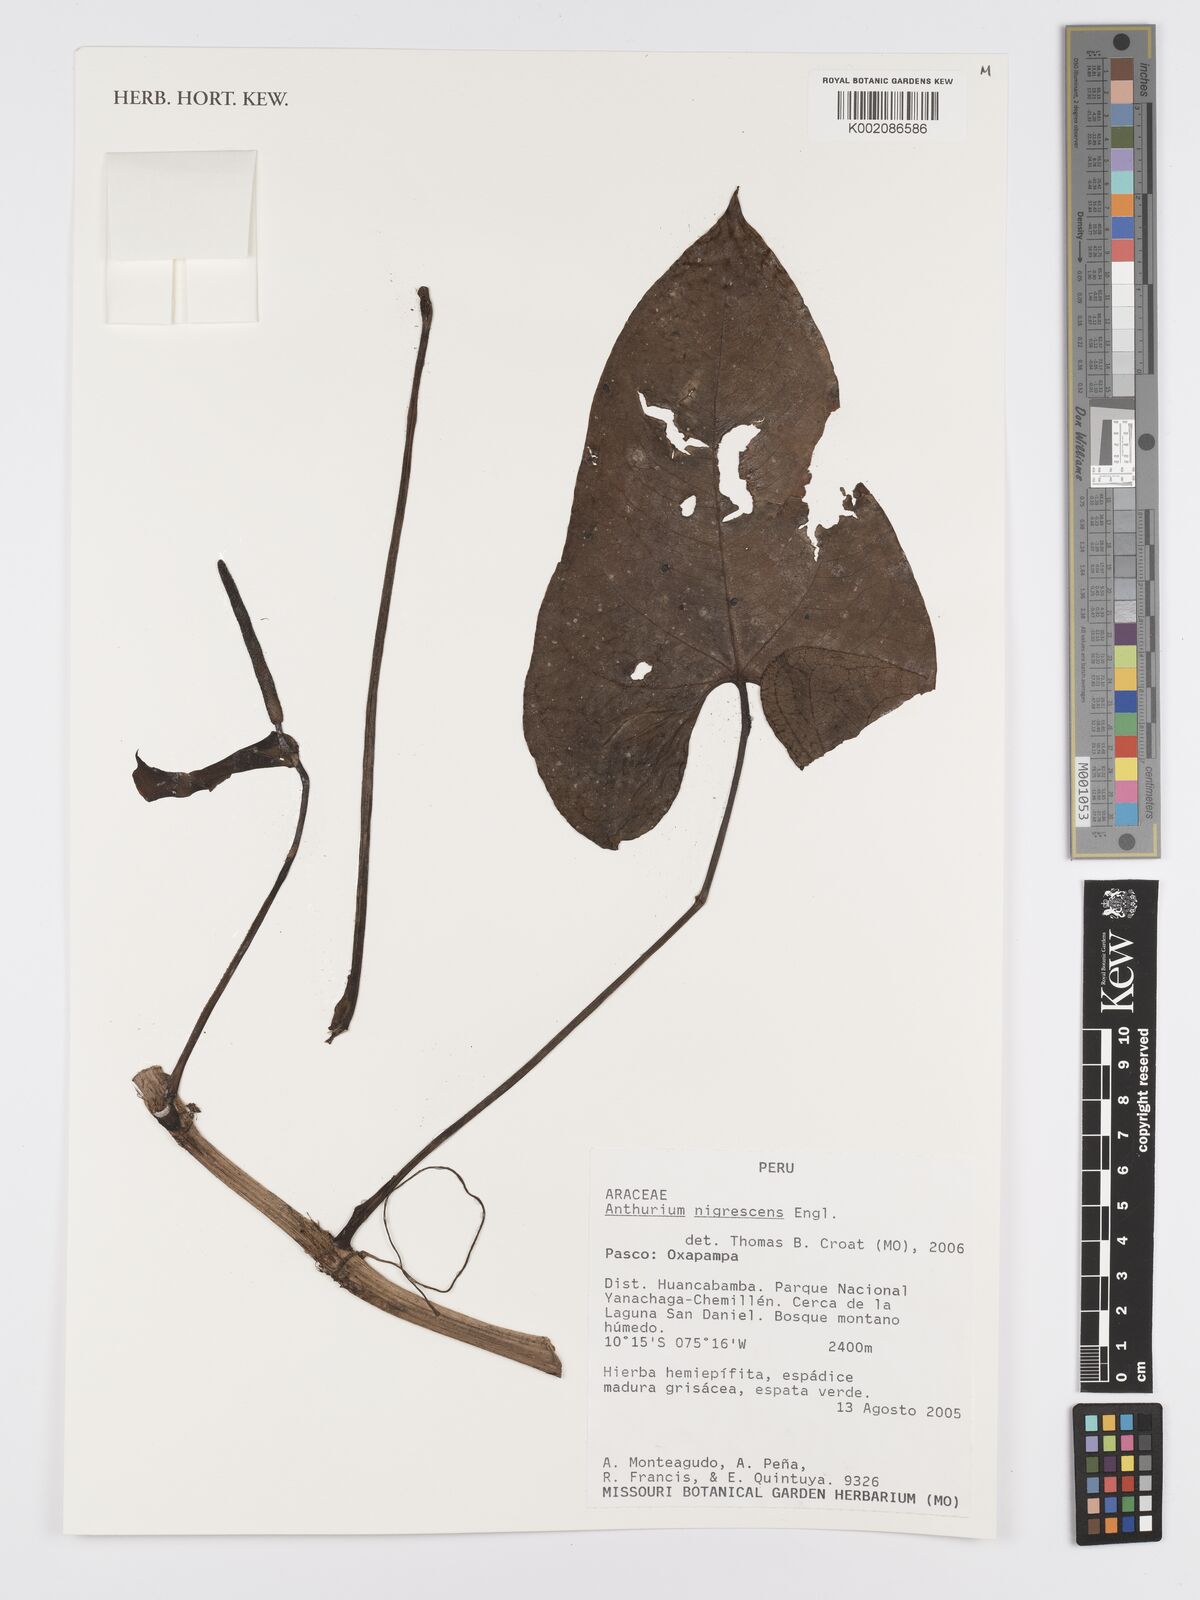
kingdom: Plantae
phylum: Tracheophyta
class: Liliopsida
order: Alismatales
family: Araceae
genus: Anthurium
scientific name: Anthurium nigrescens
